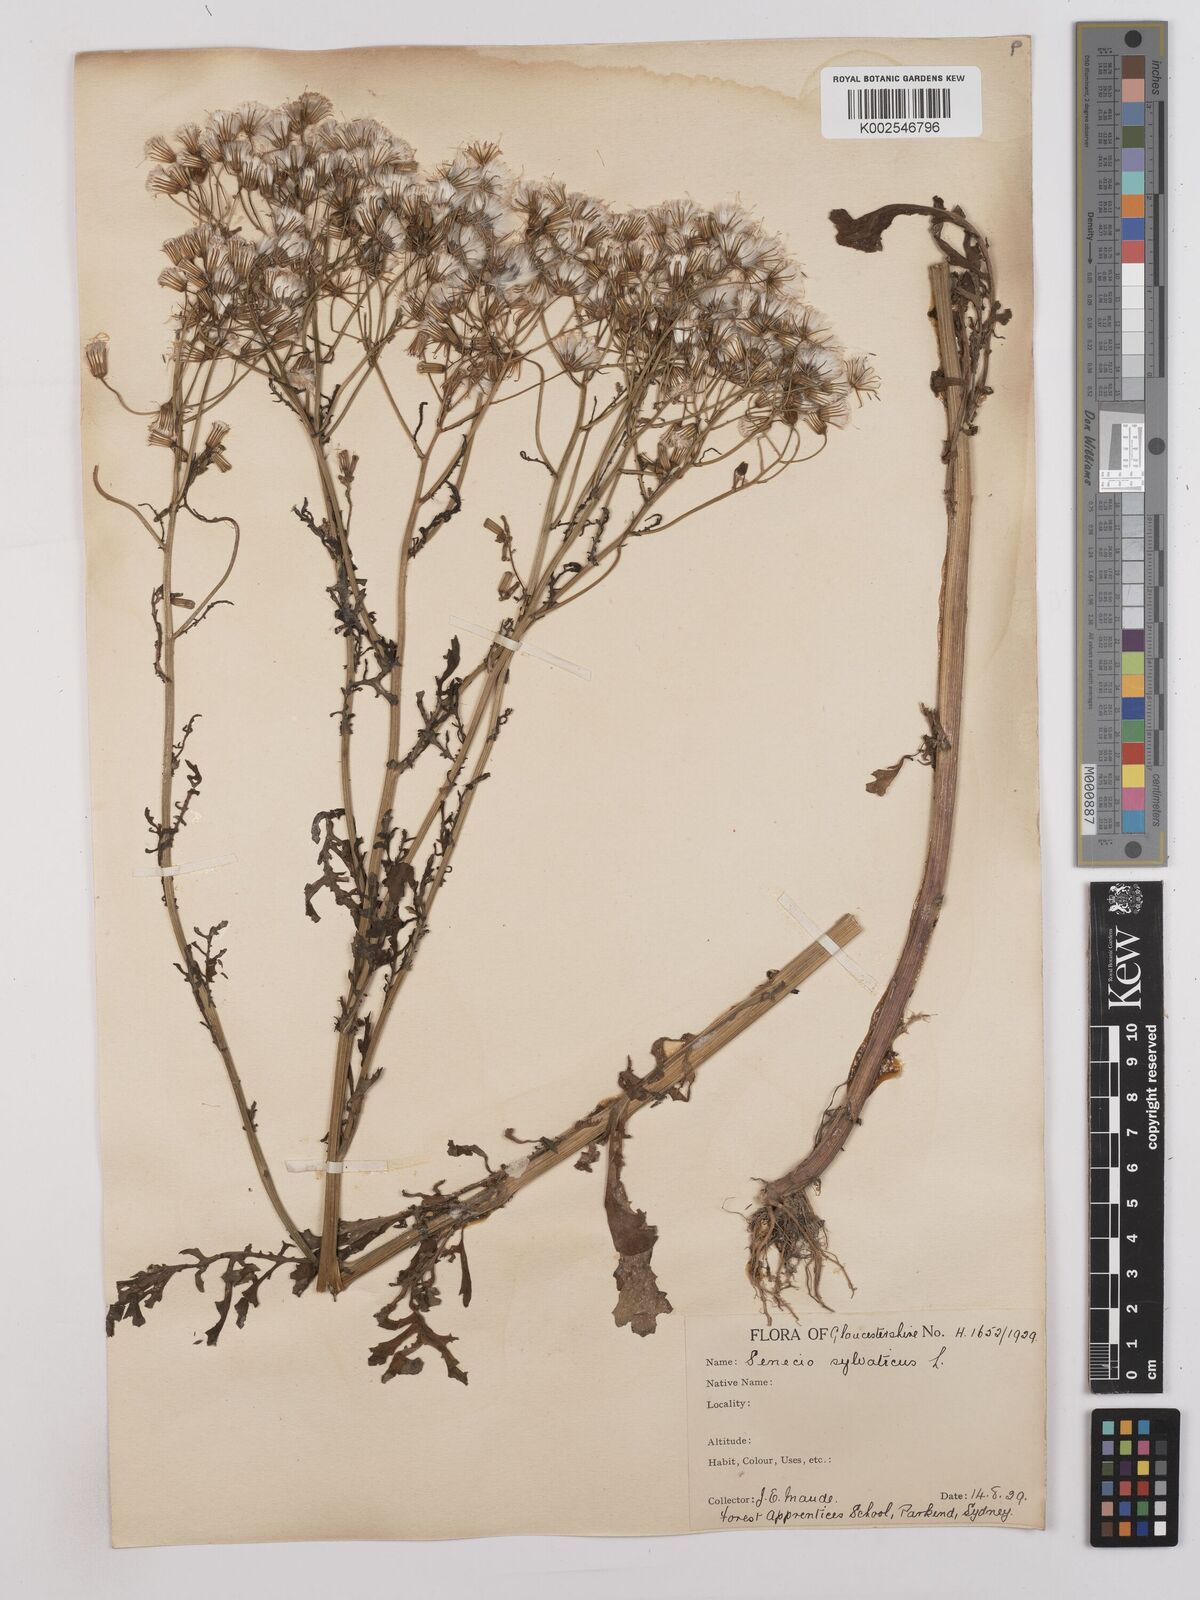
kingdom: Plantae
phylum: Tracheophyta
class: Magnoliopsida
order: Asterales
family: Asteraceae
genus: Senecio
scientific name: Senecio sylvaticus
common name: Woodland ragwort
